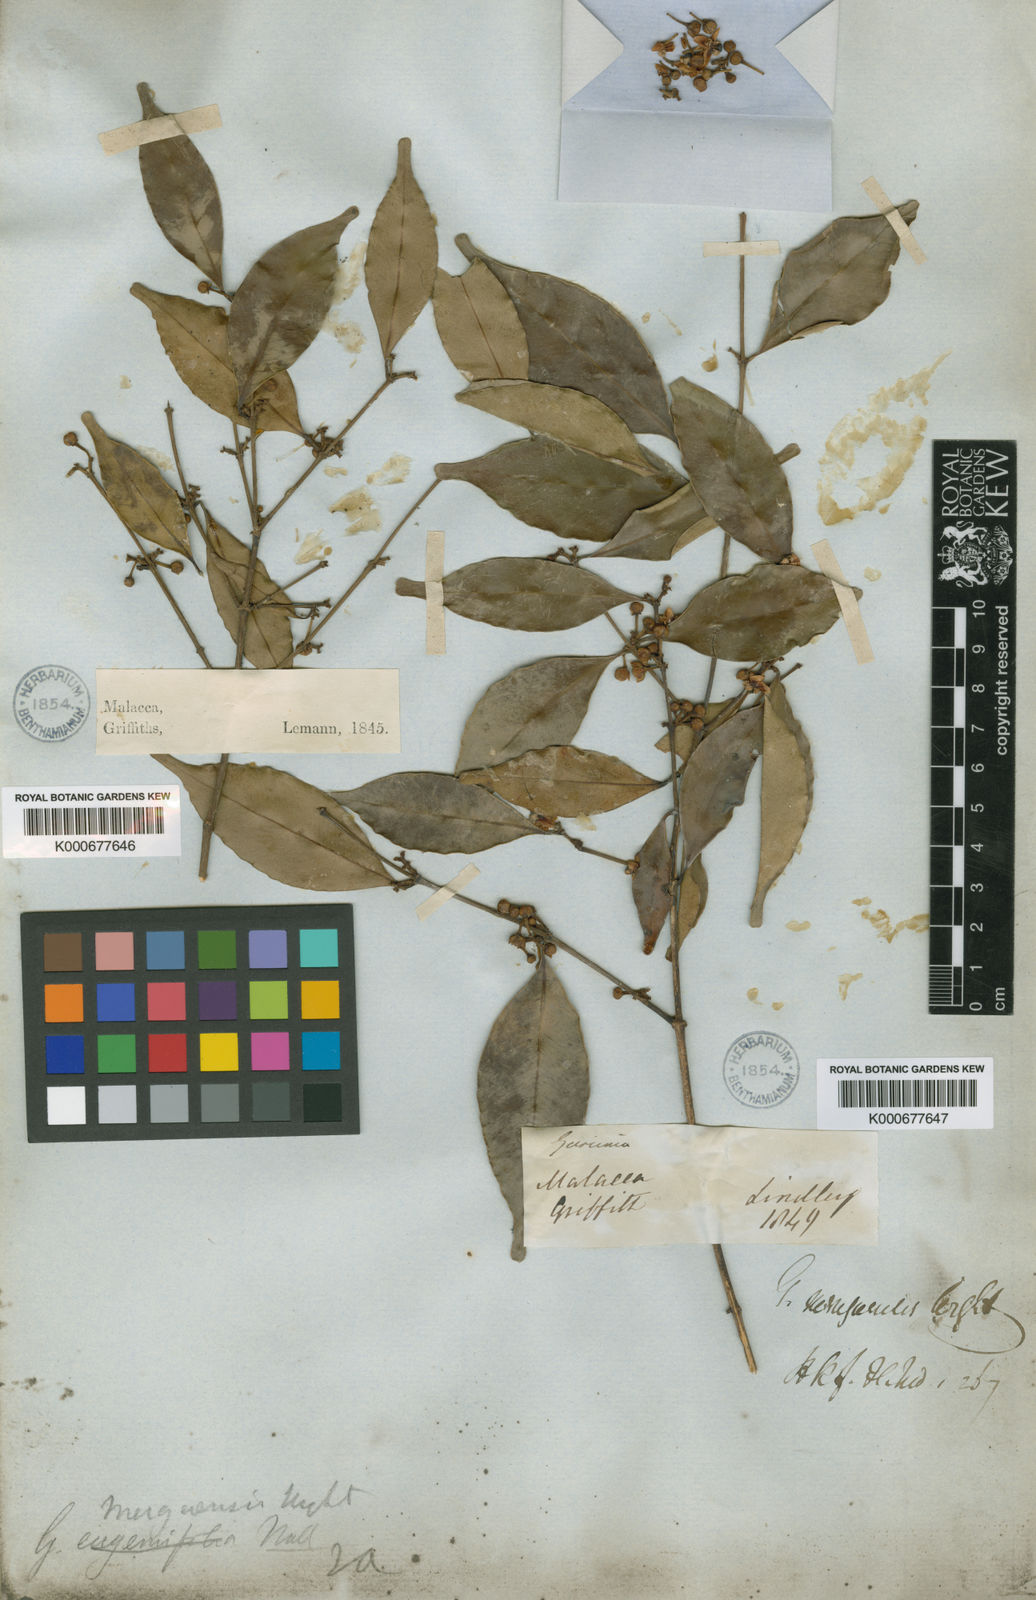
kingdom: Plantae
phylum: Tracheophyta
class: Magnoliopsida
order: Malpighiales
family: Clusiaceae
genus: Garcinia
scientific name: Garcinia merguensis
